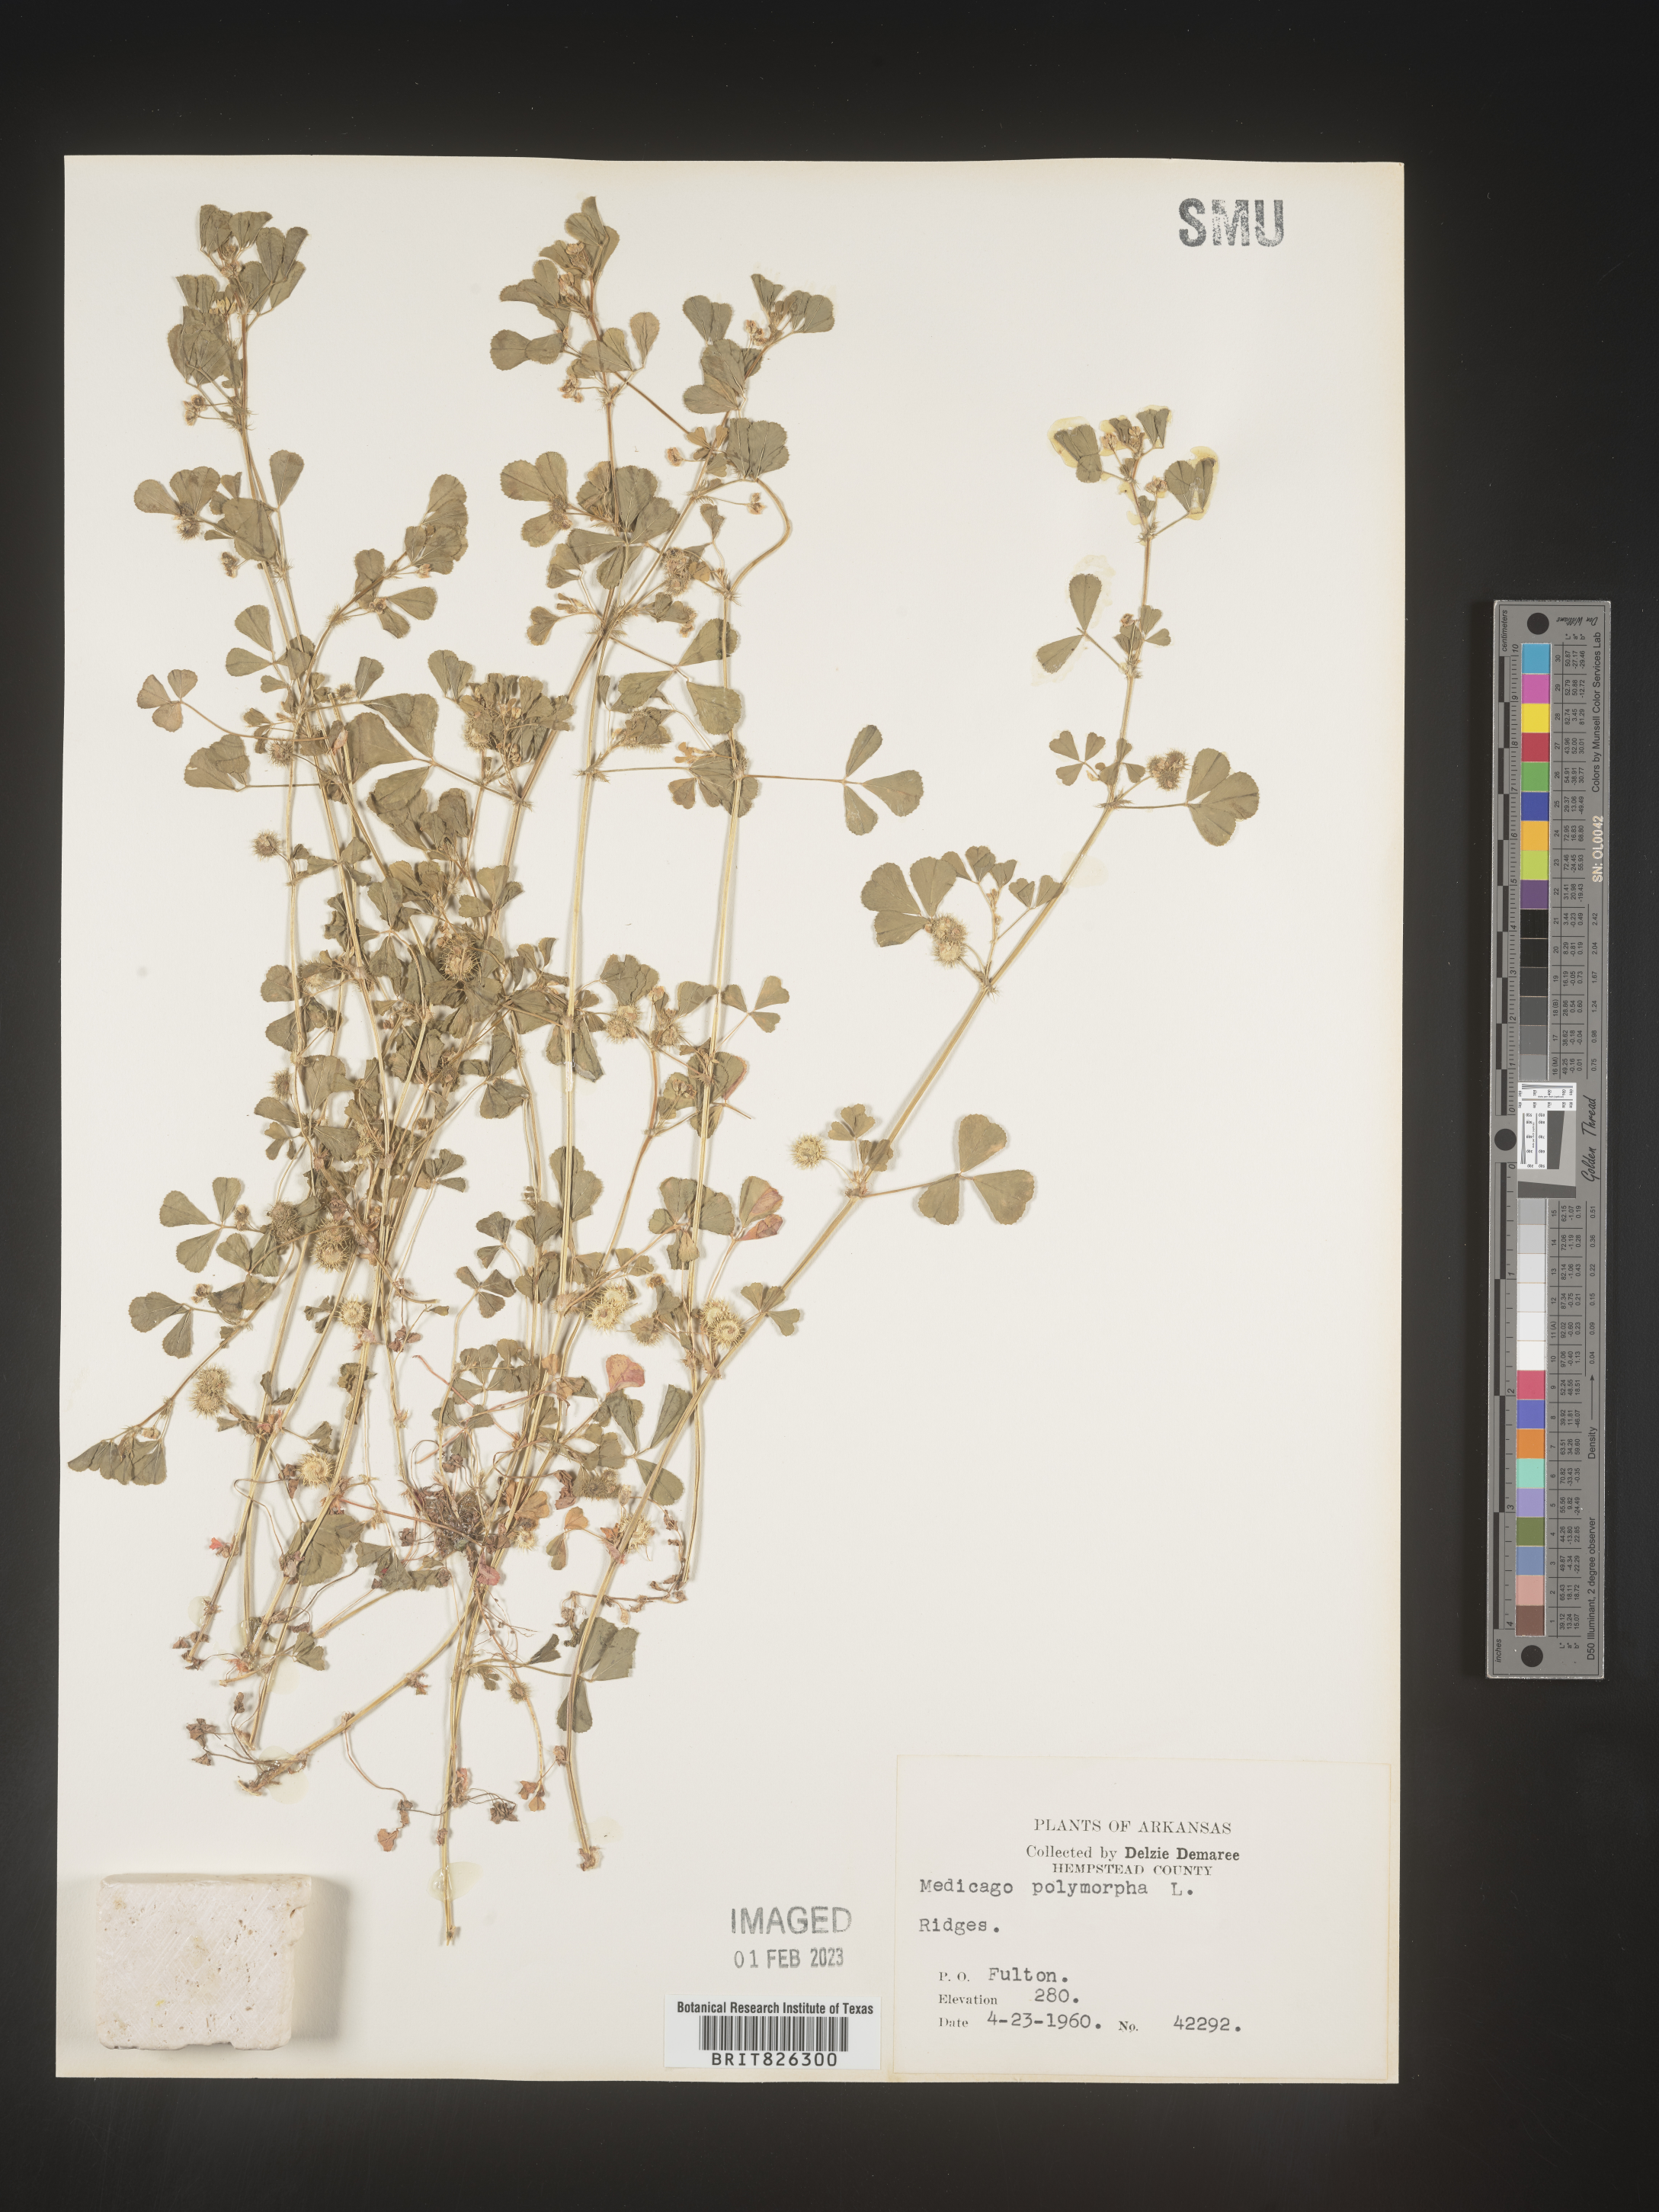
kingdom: Plantae
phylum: Tracheophyta
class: Magnoliopsida
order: Fabales
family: Fabaceae
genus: Medicago
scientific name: Medicago polymorpha
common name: Burclover
